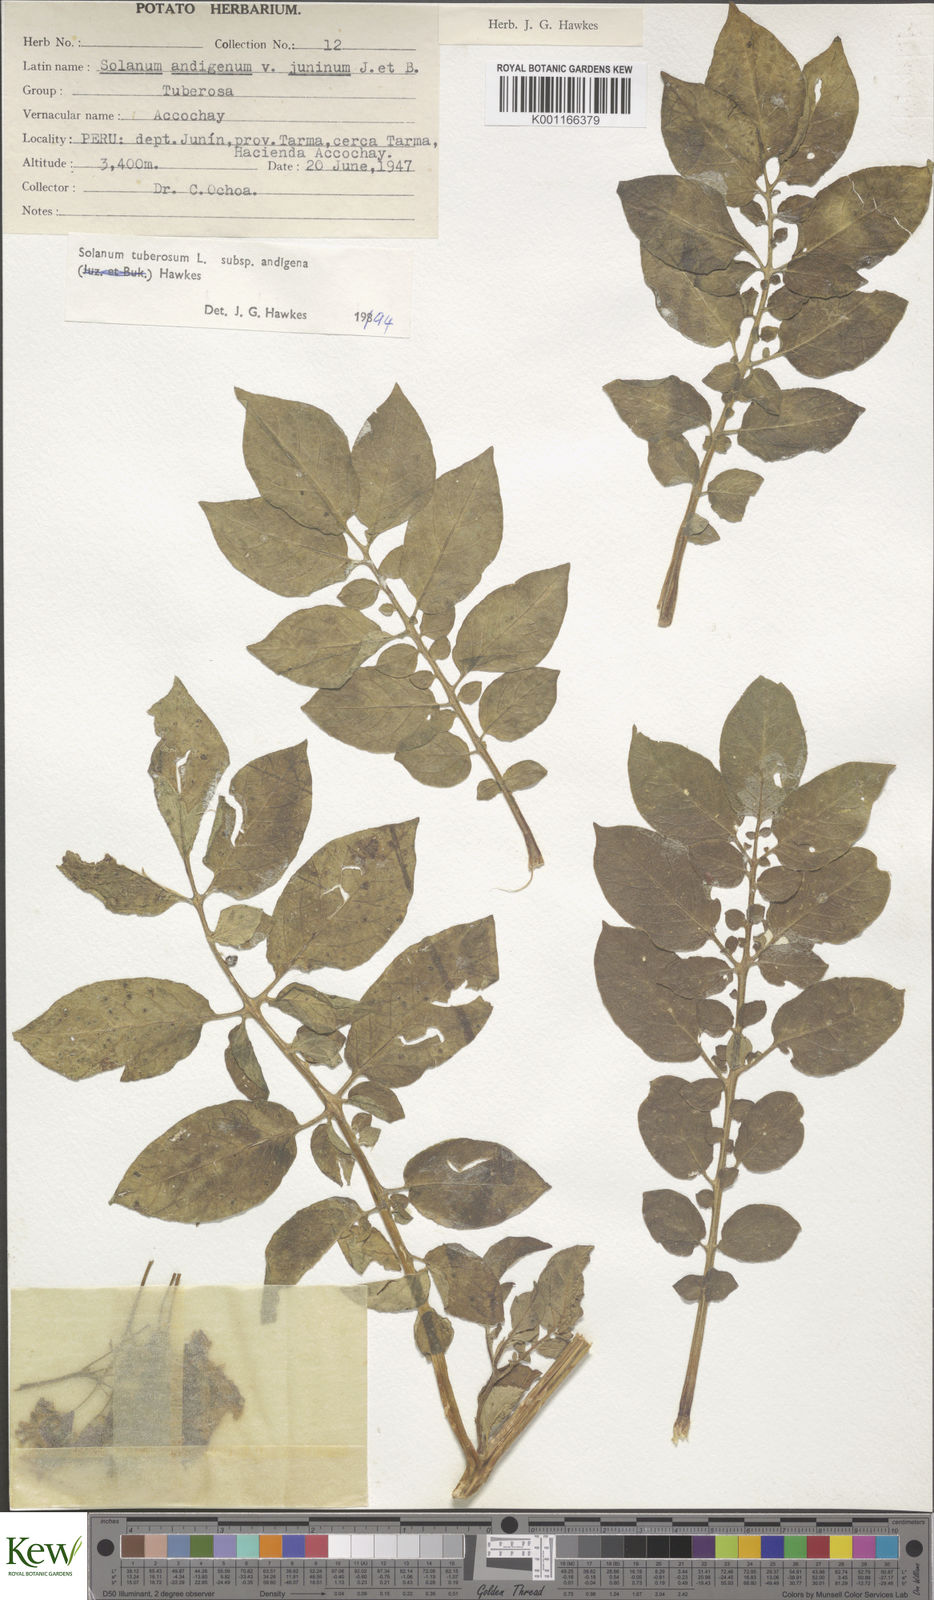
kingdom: Plantae
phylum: Tracheophyta
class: Magnoliopsida
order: Solanales
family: Solanaceae
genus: Solanum
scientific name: Solanum tuberosum
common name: Potato
